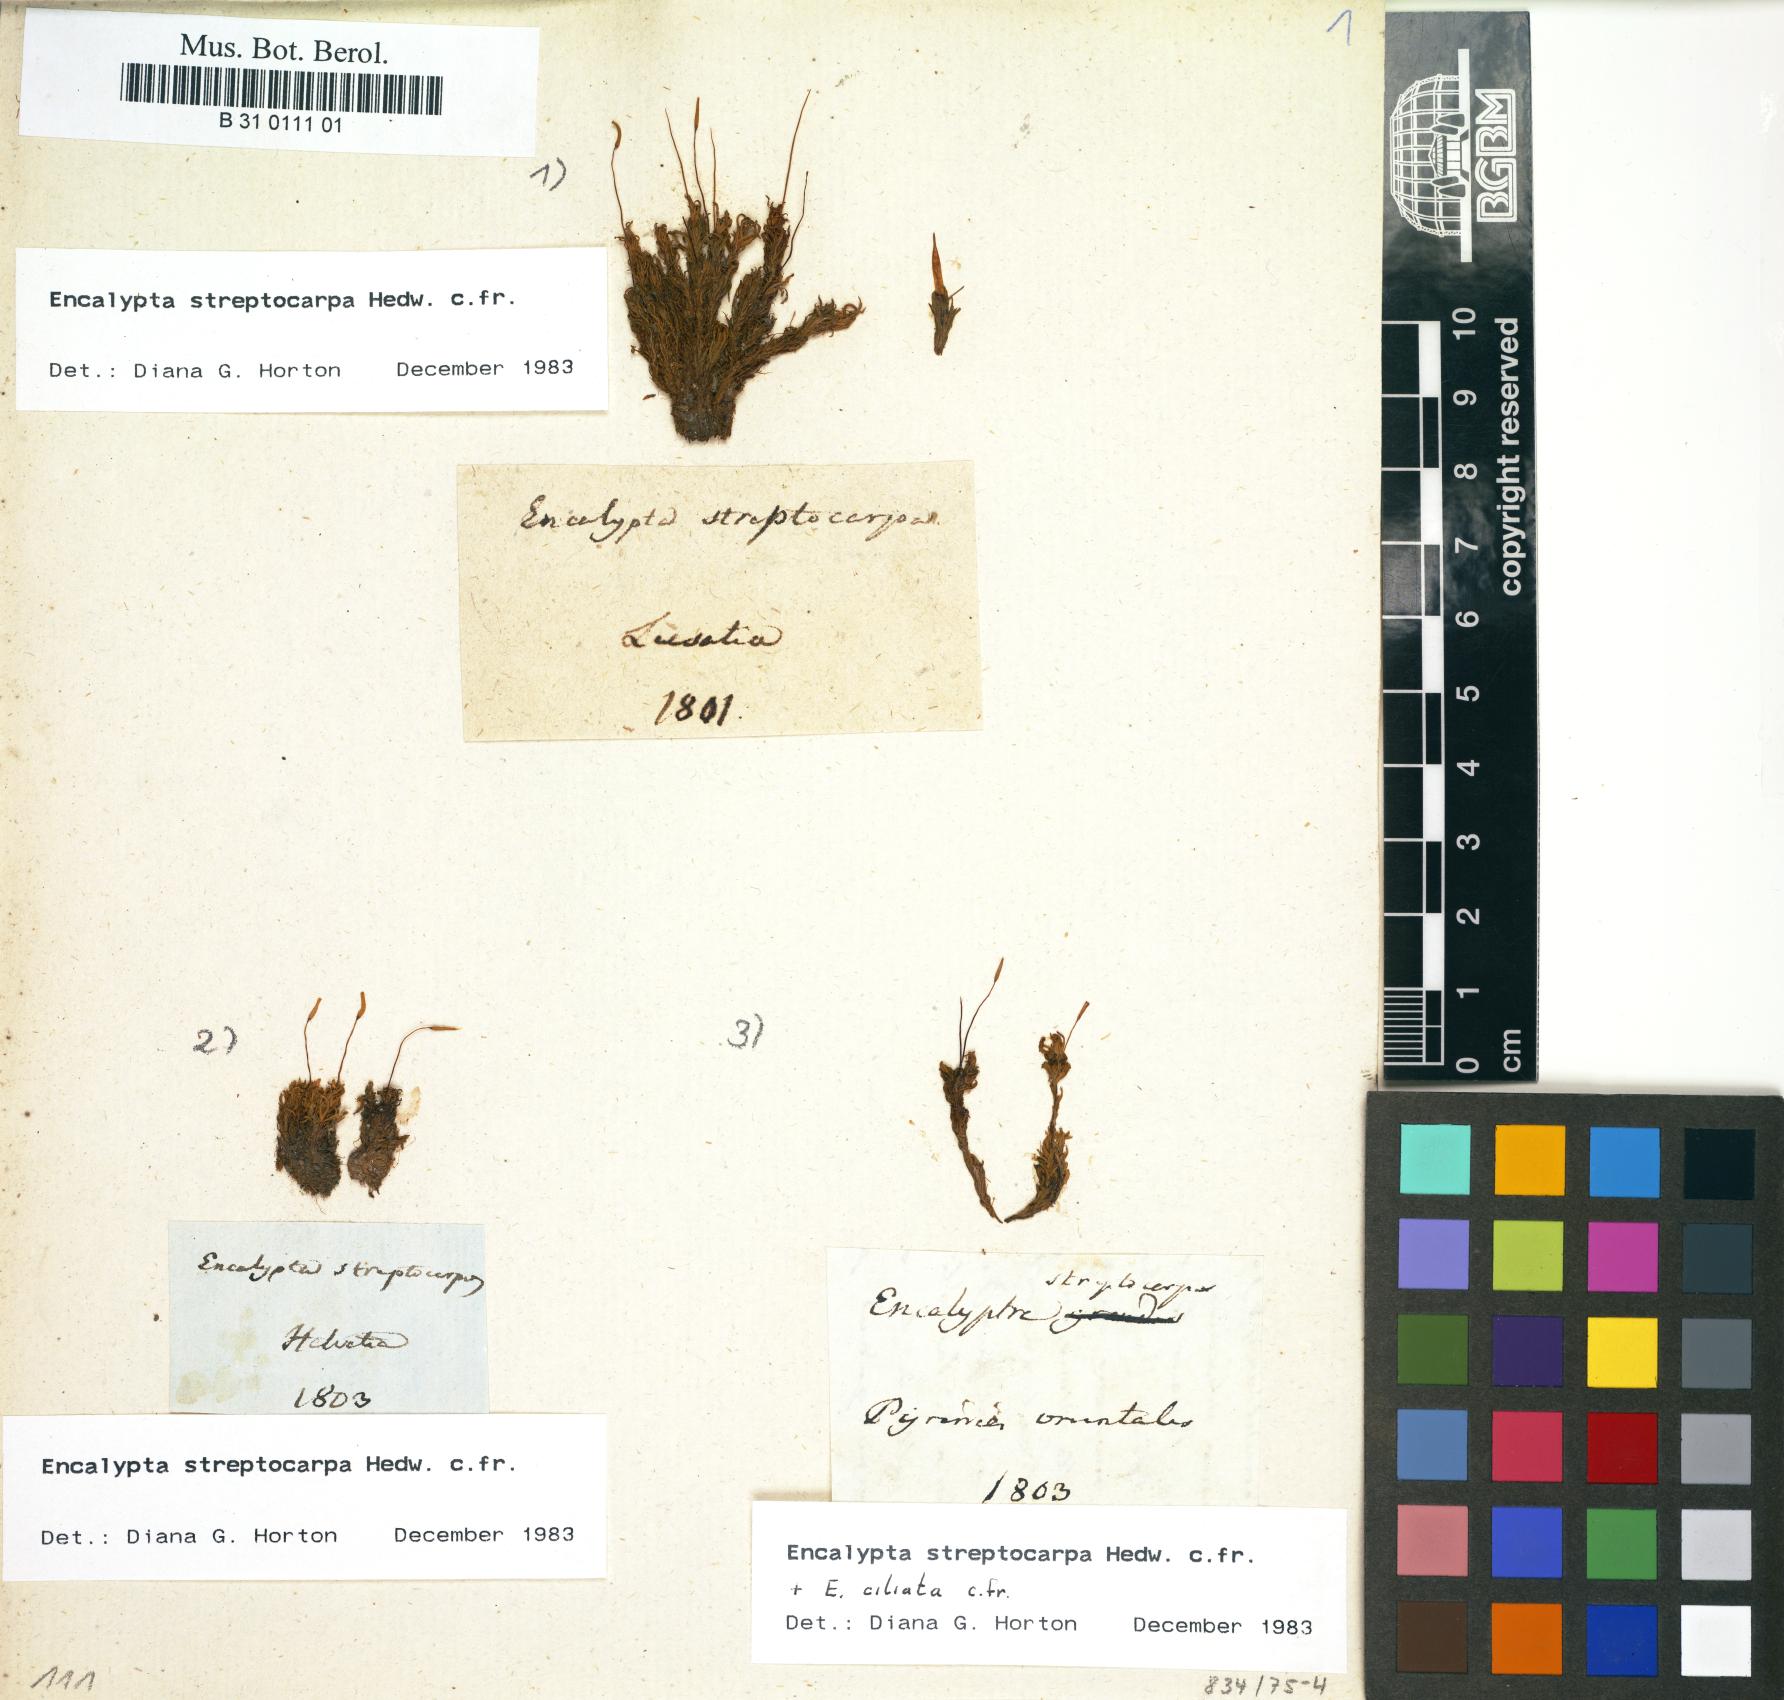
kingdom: Plantae
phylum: Bryophyta
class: Bryopsida
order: Encalyptales
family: Encalyptaceae
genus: Encalypta
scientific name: Encalypta streptocarpa
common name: Spiral extinguisher-moss
